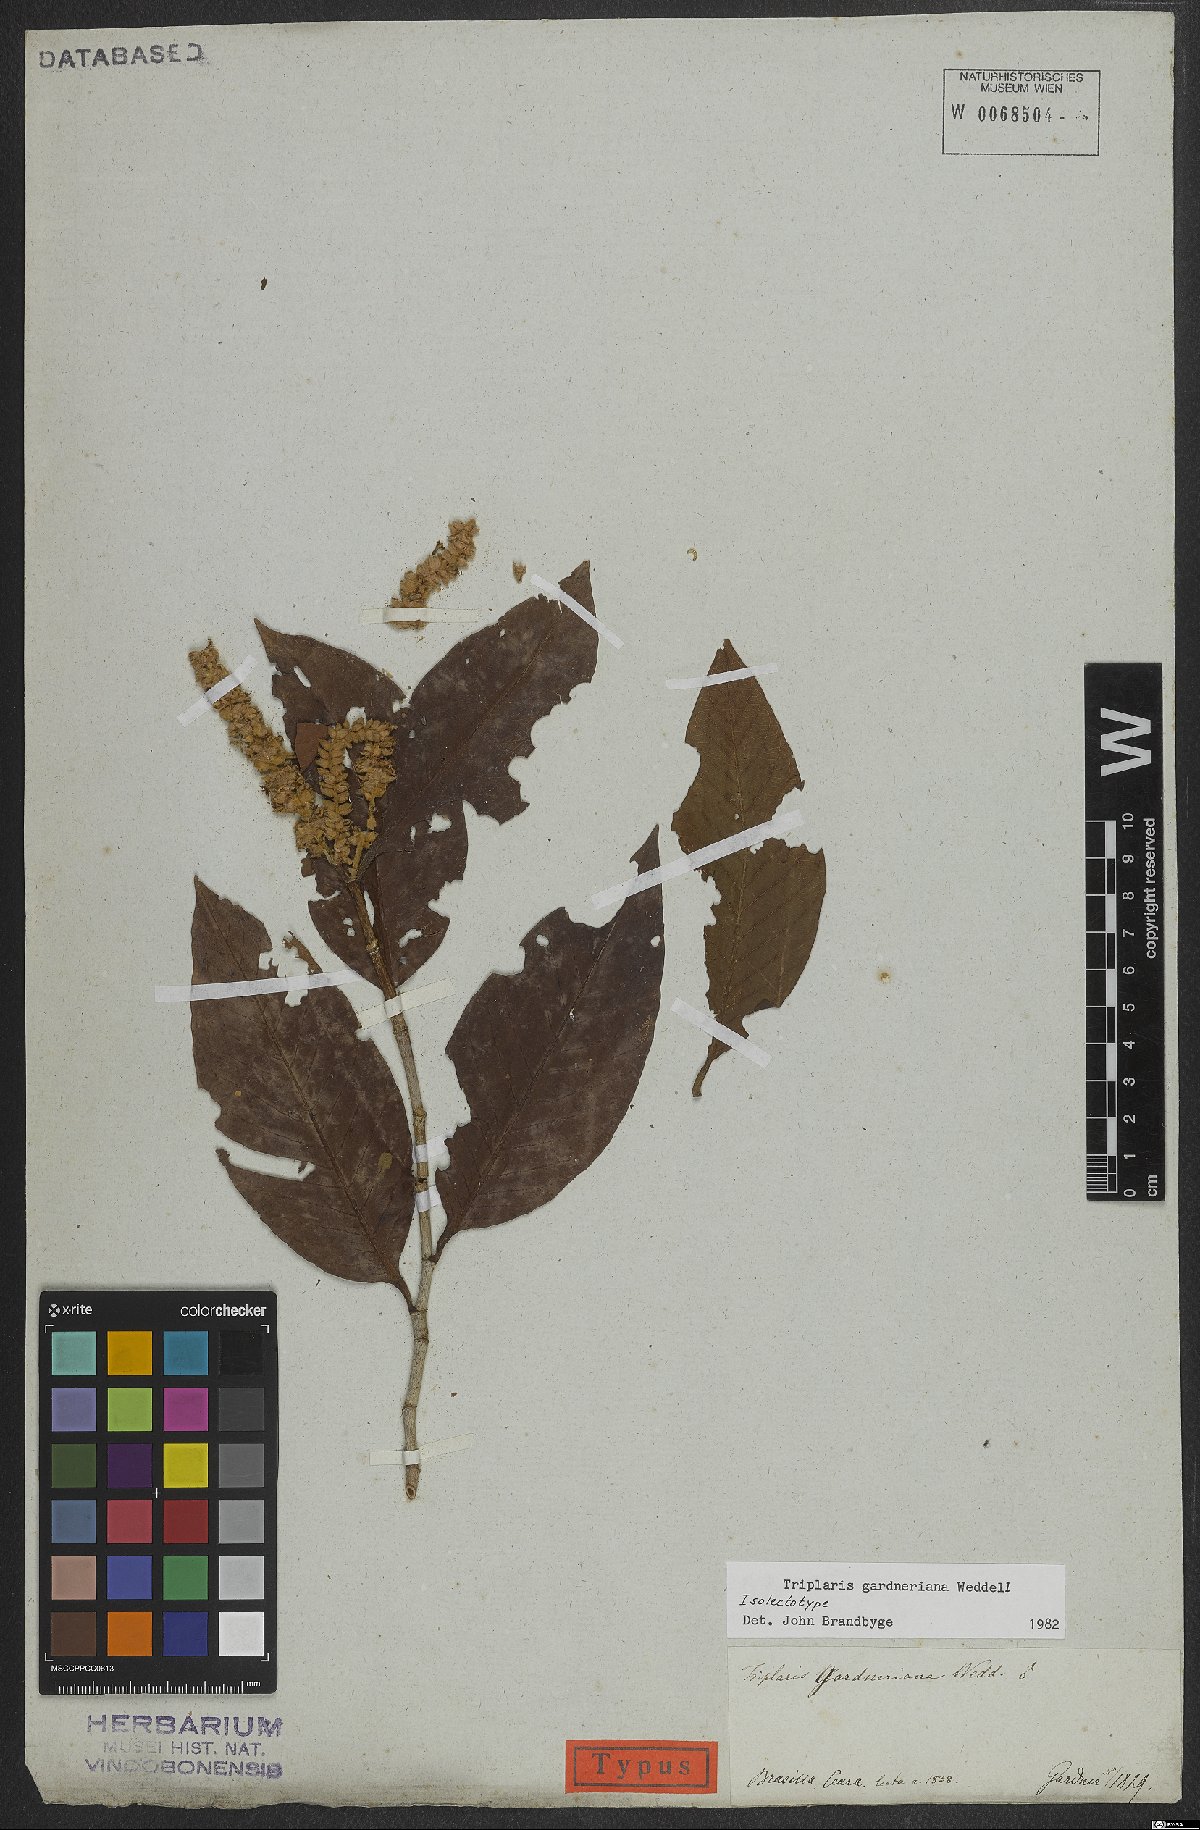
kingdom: Plantae
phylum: Tracheophyta
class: Magnoliopsida
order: Caryophyllales
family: Polygonaceae
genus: Triplaris
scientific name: Triplaris gardneriana
